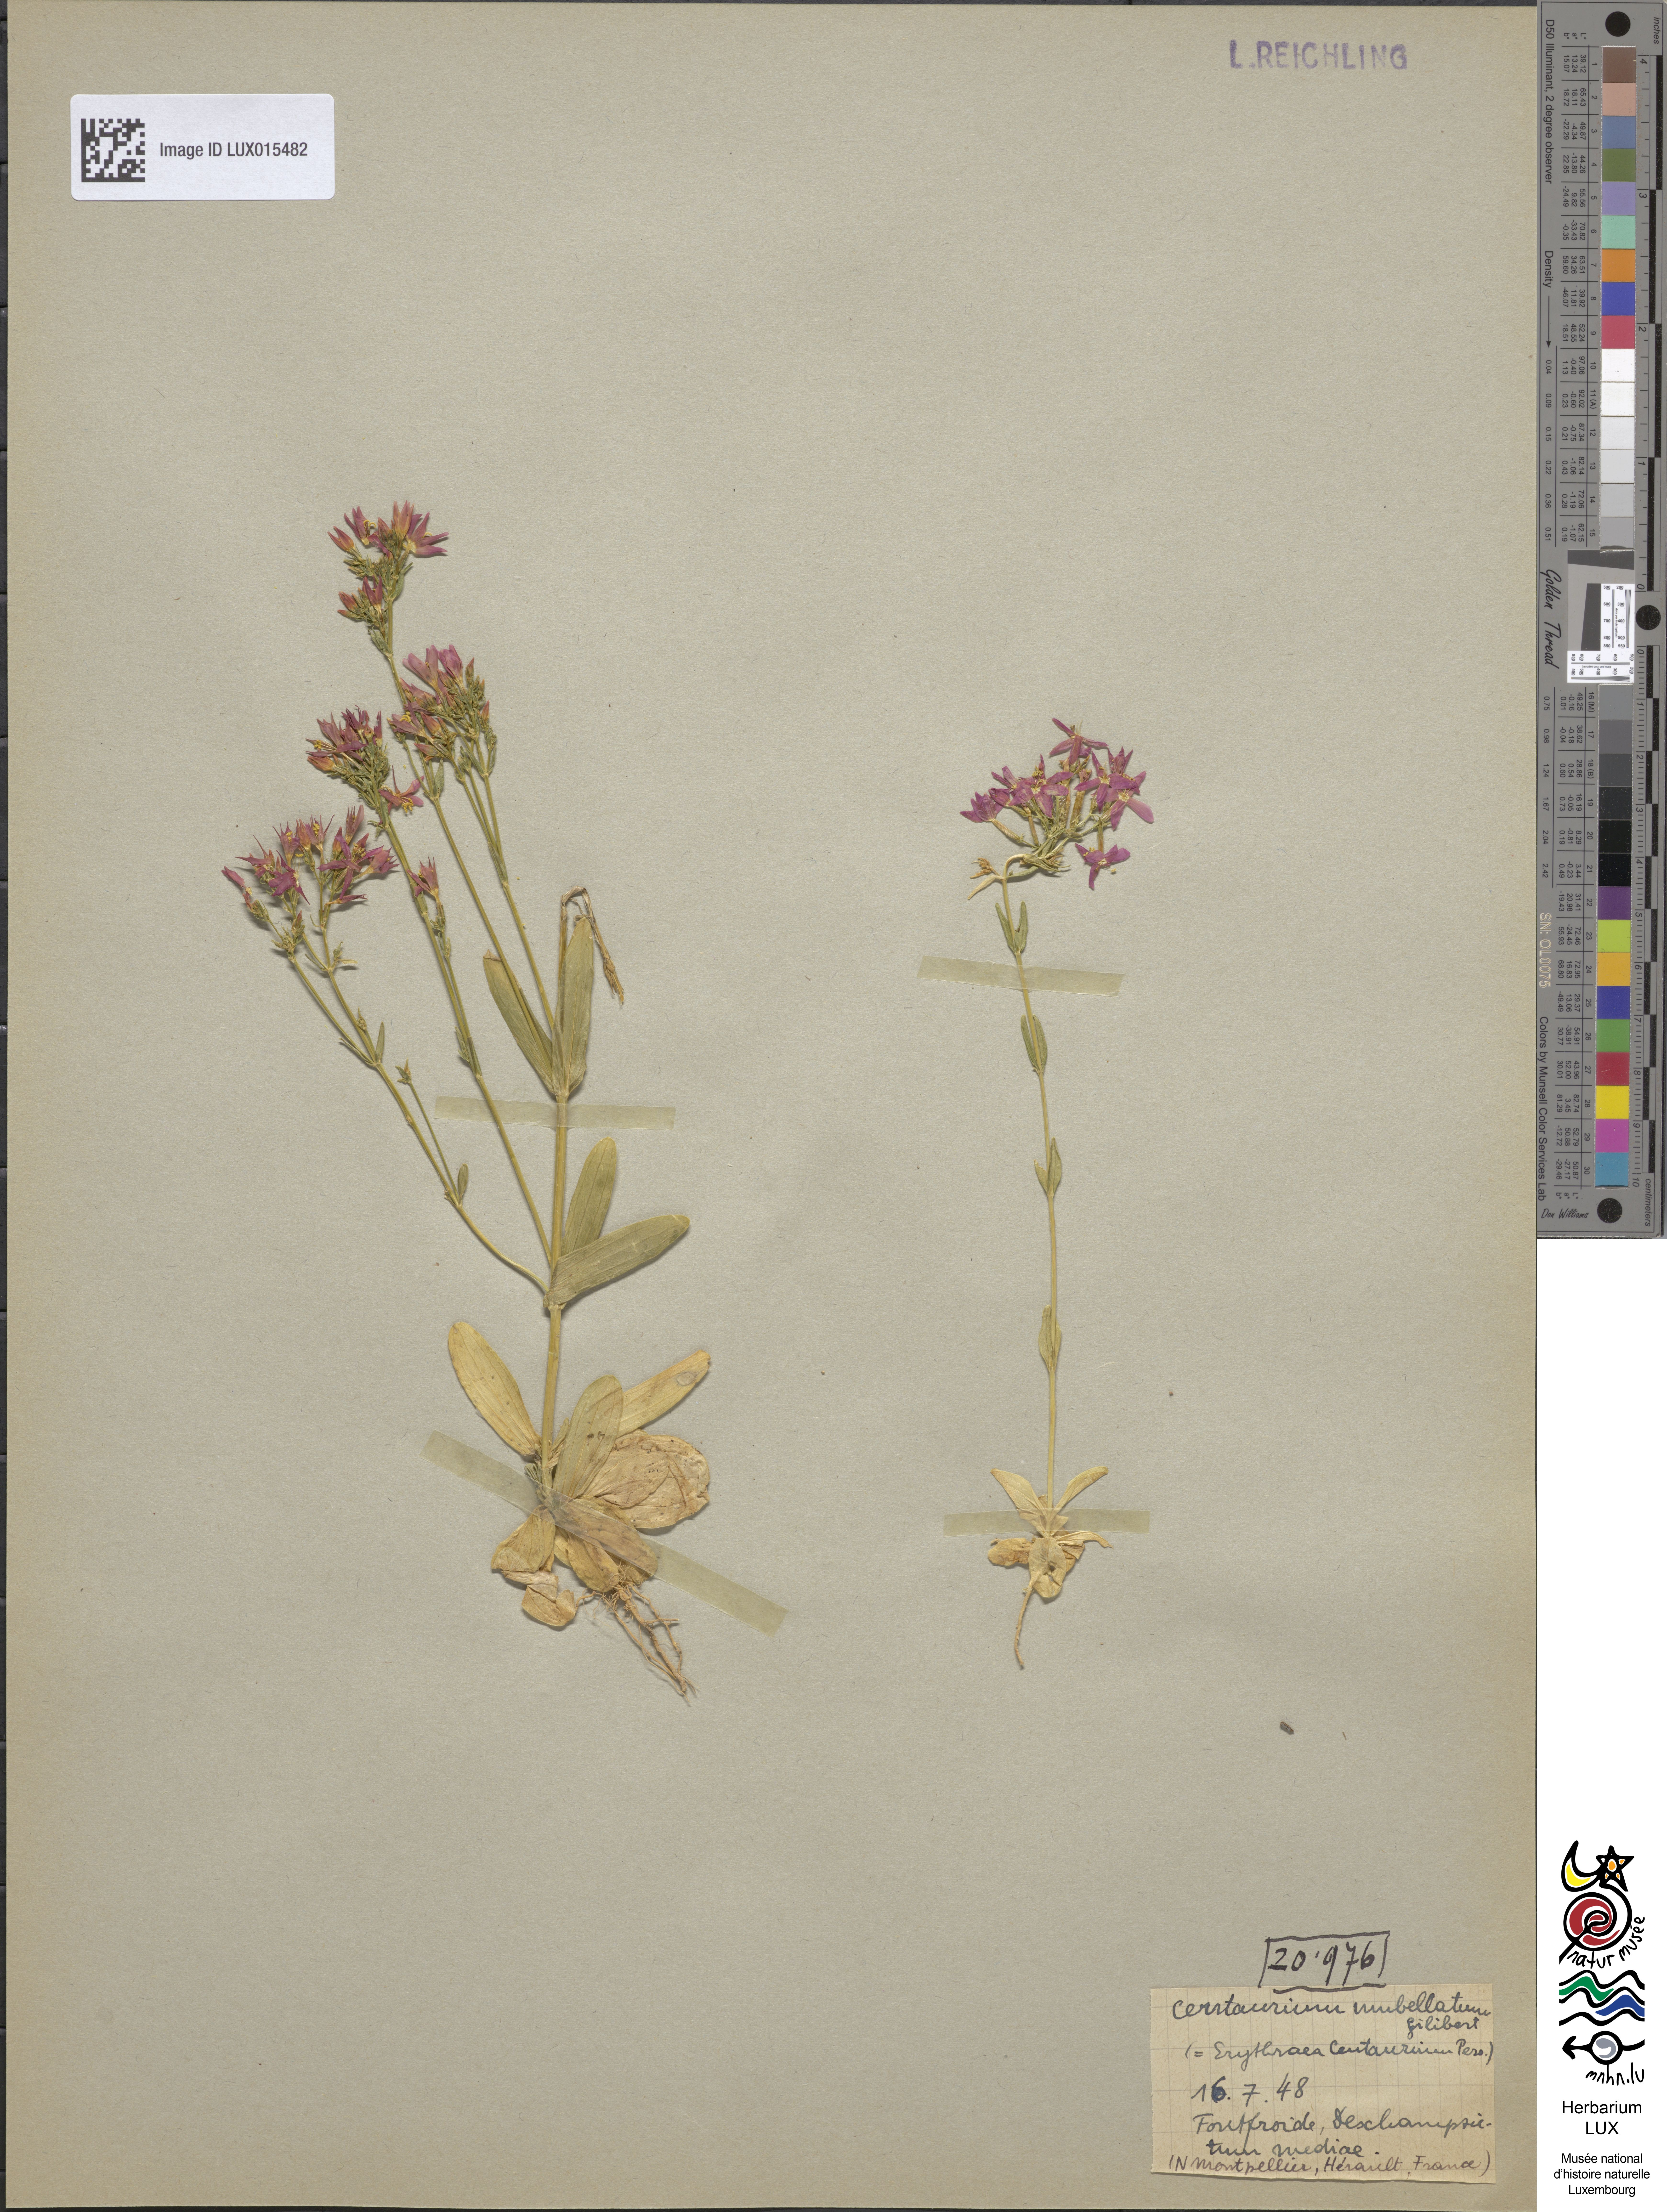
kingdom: Plantae
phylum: Tracheophyta
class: Magnoliopsida
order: Gentianales
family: Gentianaceae
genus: Centaurium
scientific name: Centaurium erythraea
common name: Common centaury
